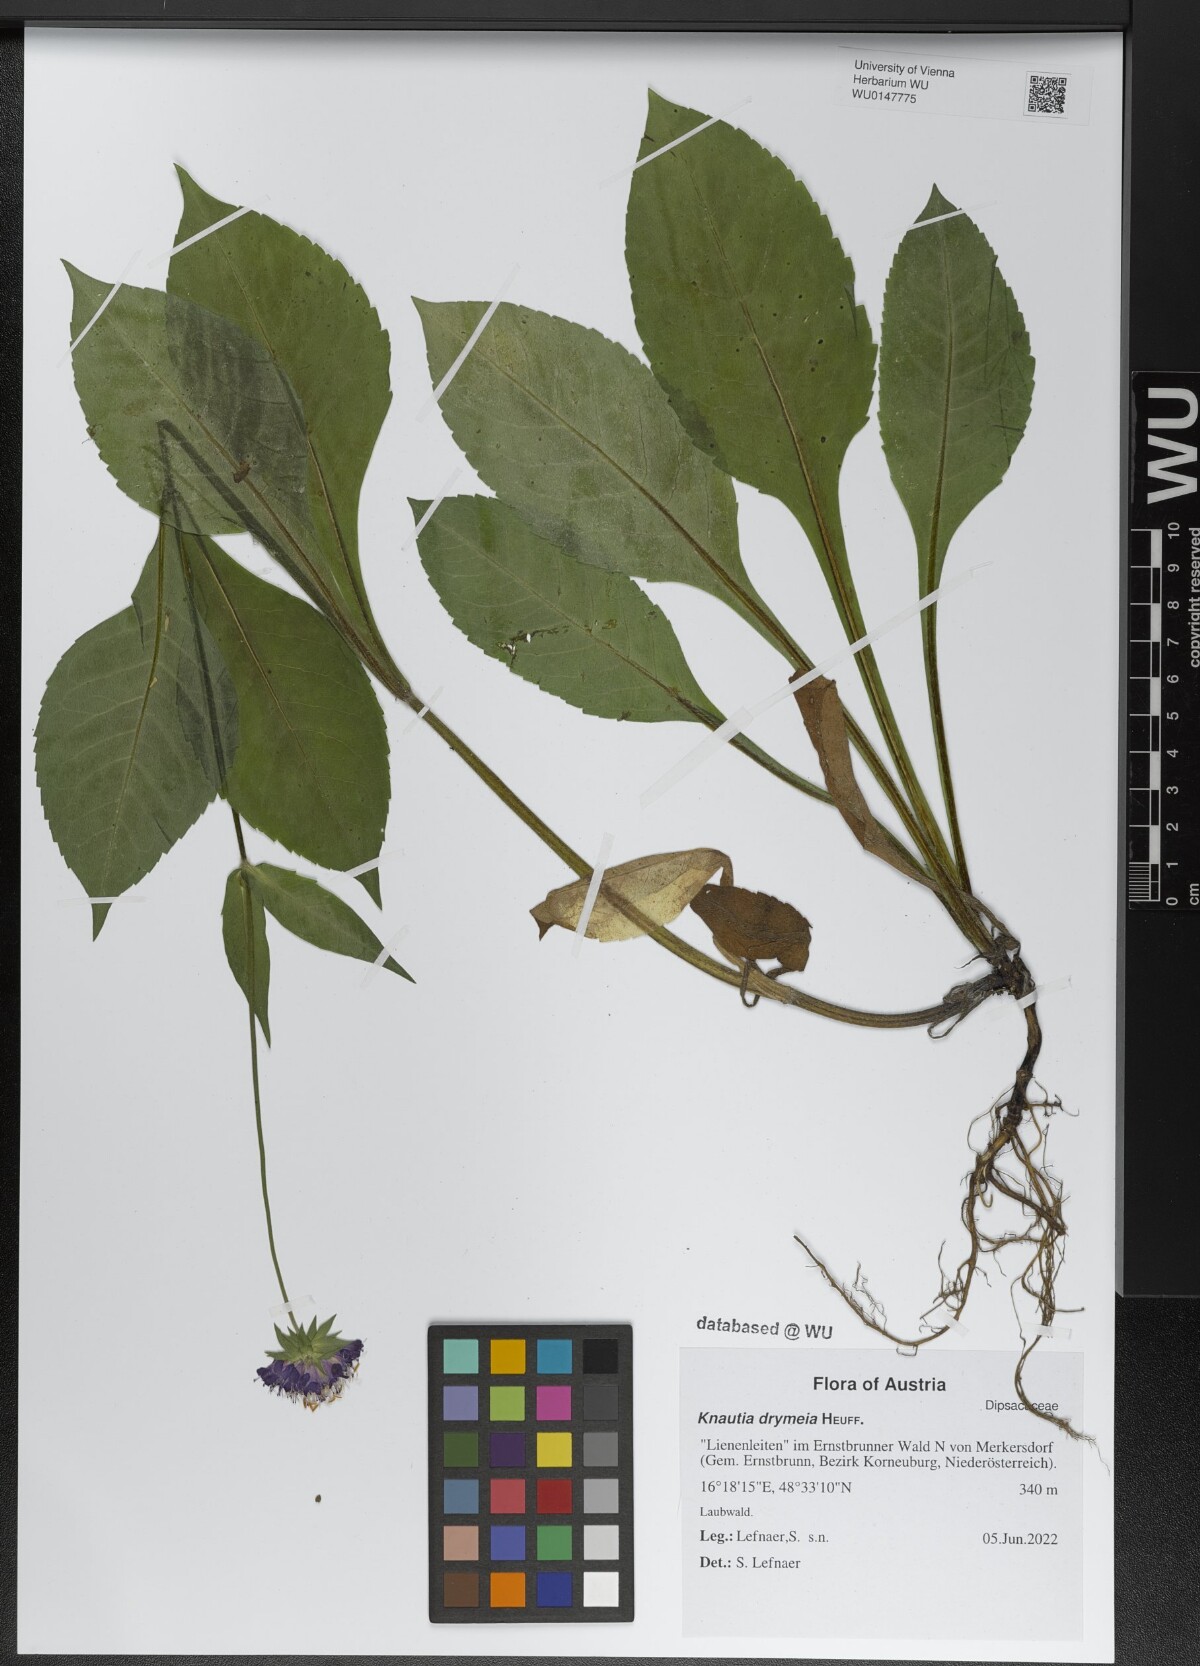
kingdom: Plantae
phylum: Tracheophyta
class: Magnoliopsida
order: Dipsacales
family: Caprifoliaceae
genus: Knautia
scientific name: Knautia drymeia
